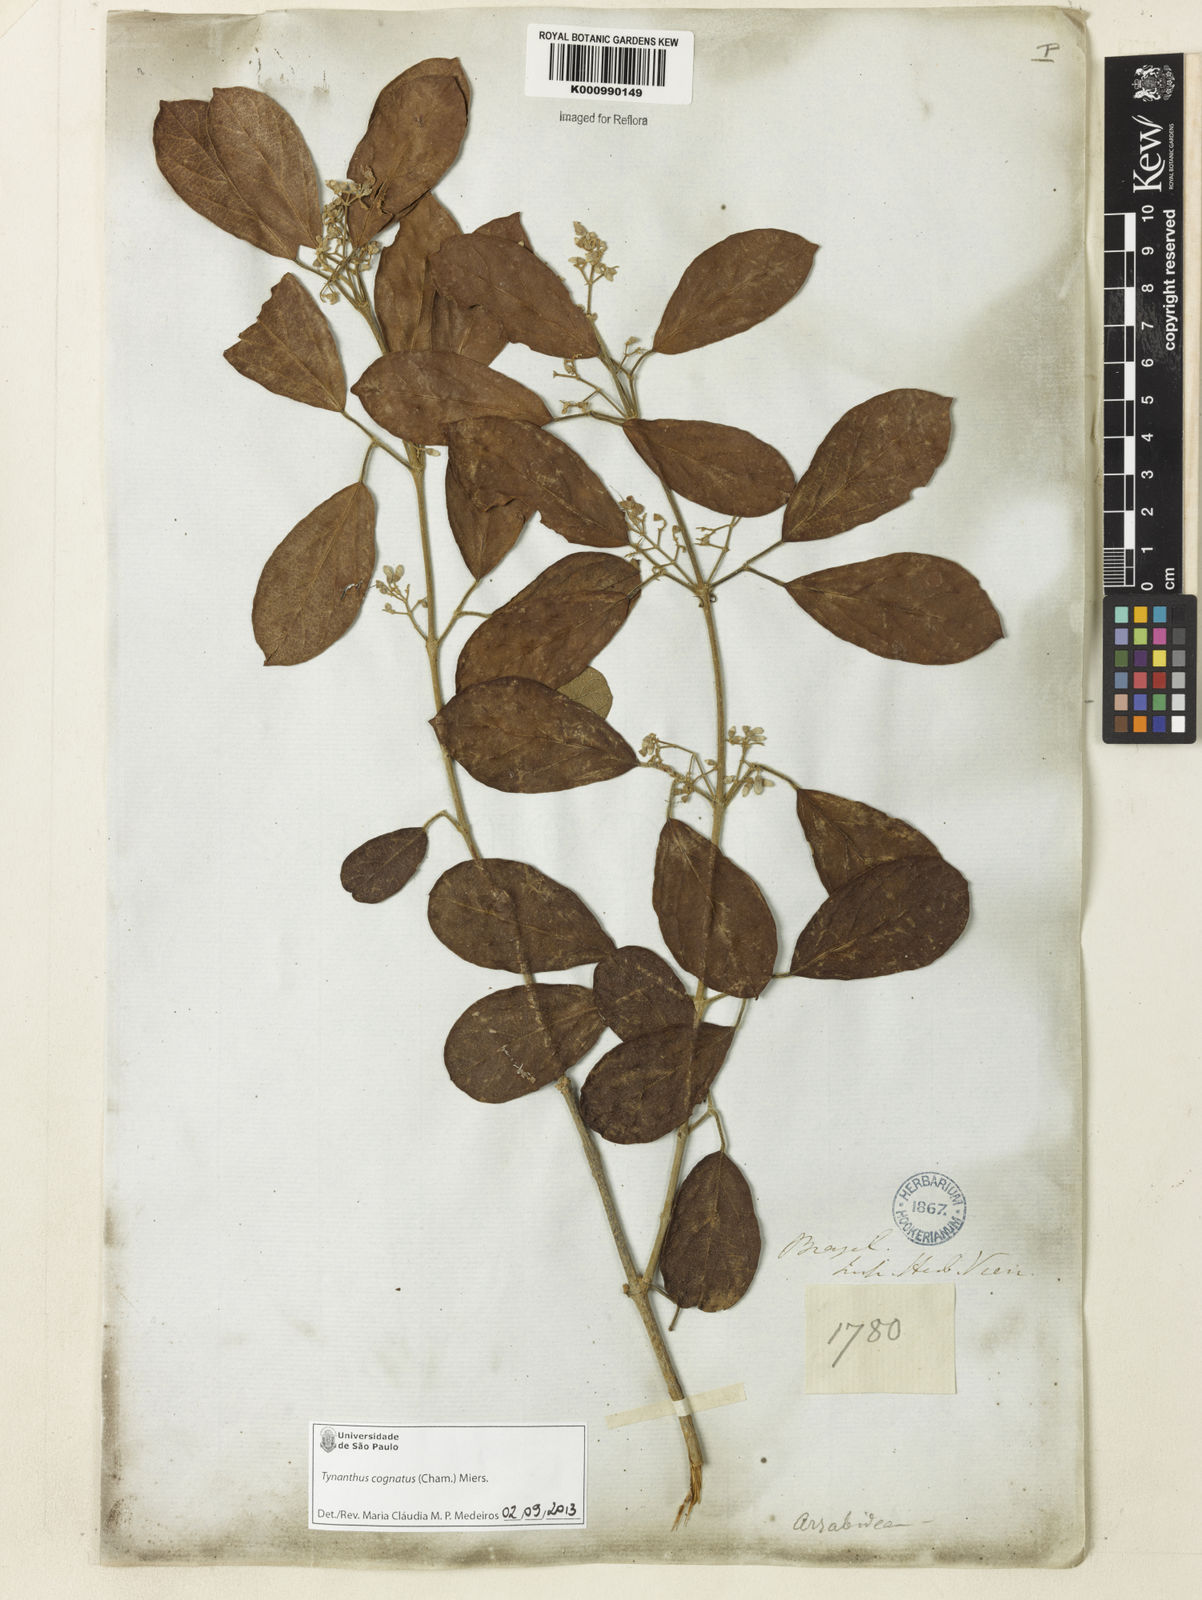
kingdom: Plantae
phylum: Tracheophyta
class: Magnoliopsida
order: Lamiales
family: Bignoniaceae
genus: Tynanthus
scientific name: Tynanthus cognatus
